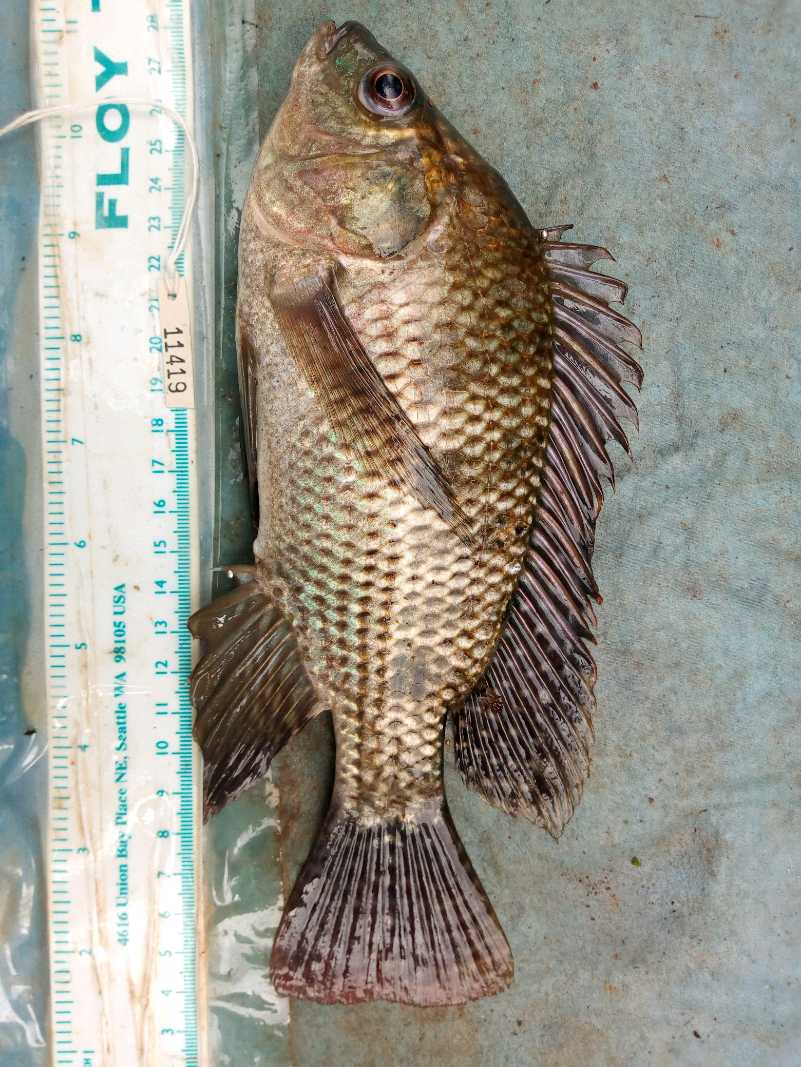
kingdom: Animalia
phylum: Chordata
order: Perciformes
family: Cichlidae
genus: Oreochromis
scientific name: Oreochromis niloticus
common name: Nile tilapia
